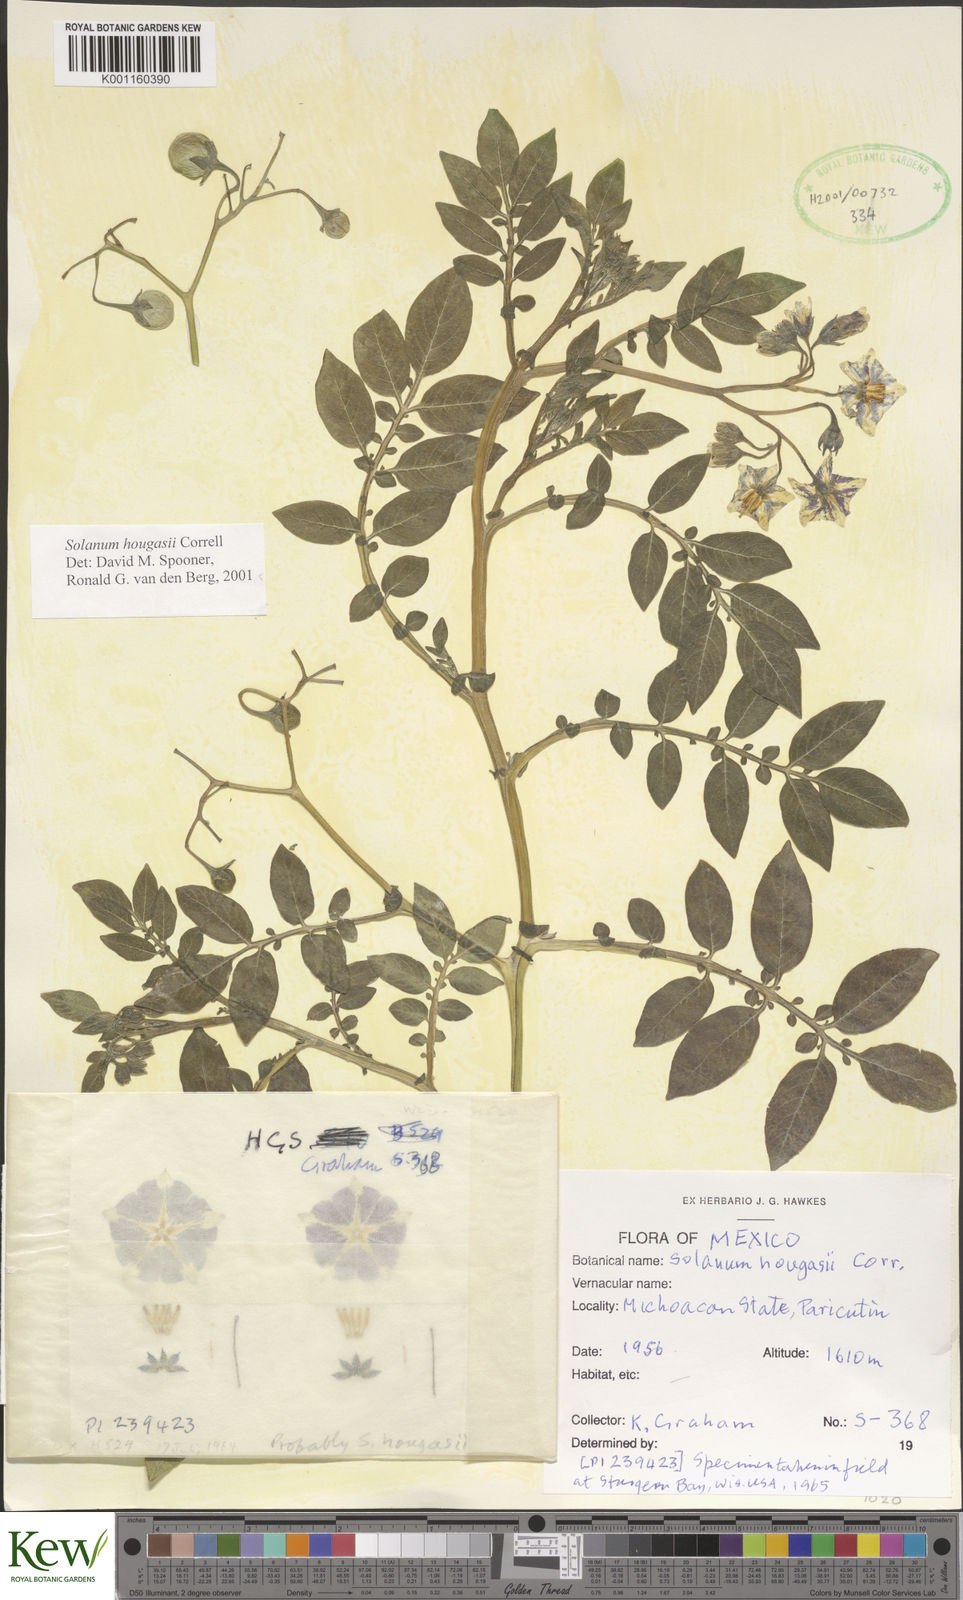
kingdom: Plantae
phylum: Tracheophyta
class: Magnoliopsida
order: Solanales
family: Solanaceae
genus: Solanum
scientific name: Solanum hougasii
